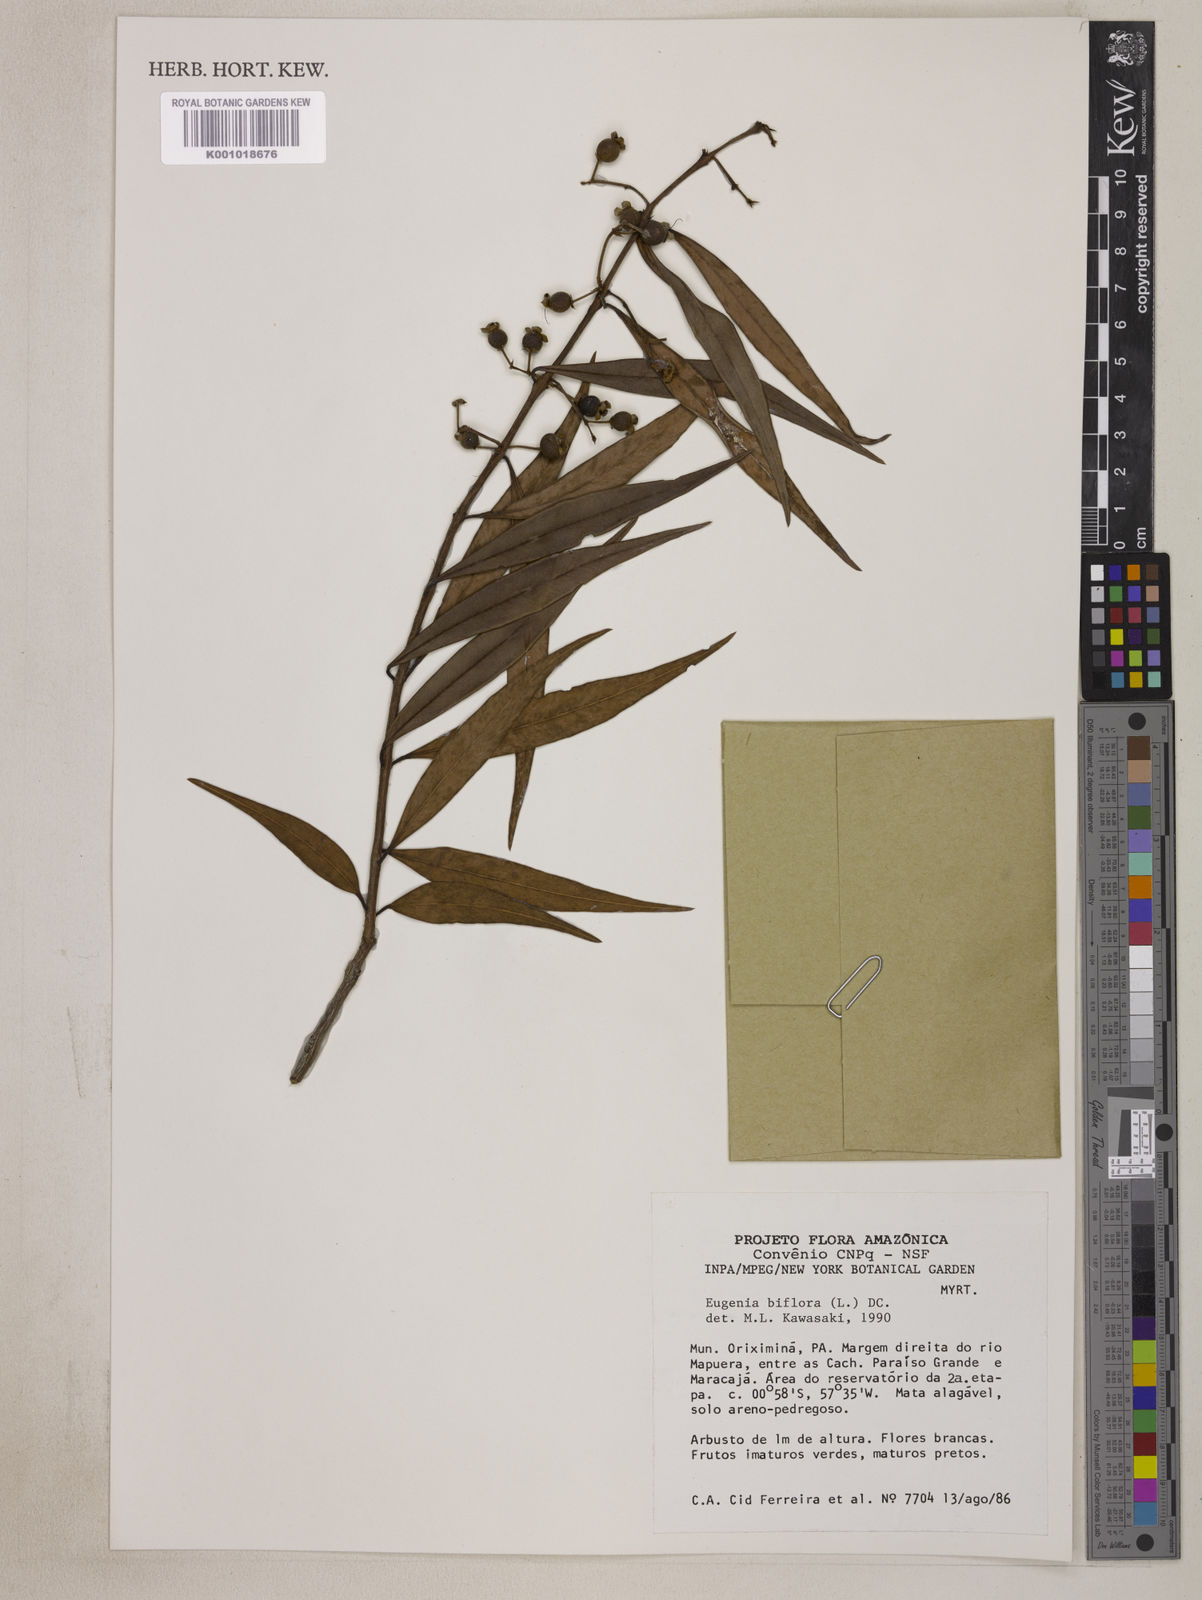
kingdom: Plantae
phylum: Tracheophyta
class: Magnoliopsida
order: Myrtales
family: Myrtaceae
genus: Eugenia
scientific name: Eugenia biflora
